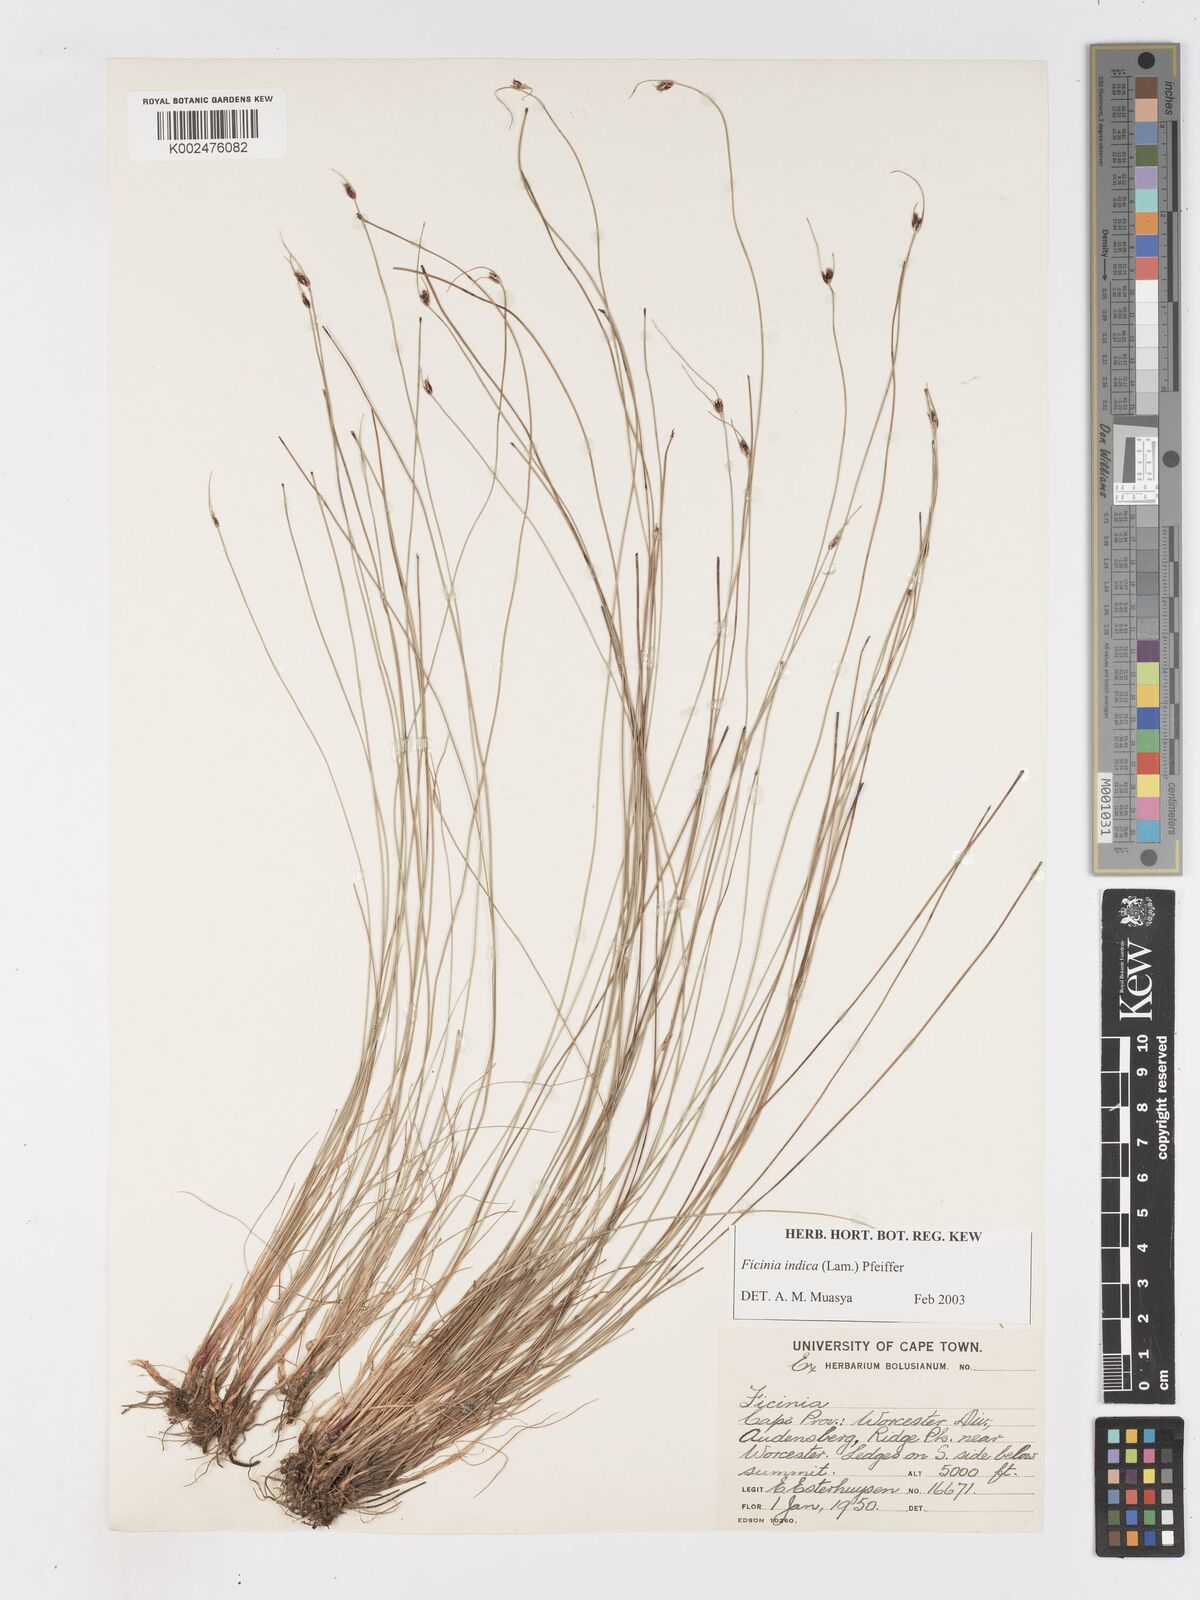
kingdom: Plantae
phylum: Tracheophyta
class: Liliopsida
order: Poales
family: Cyperaceae
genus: Ficinia
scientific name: Ficinia indica
